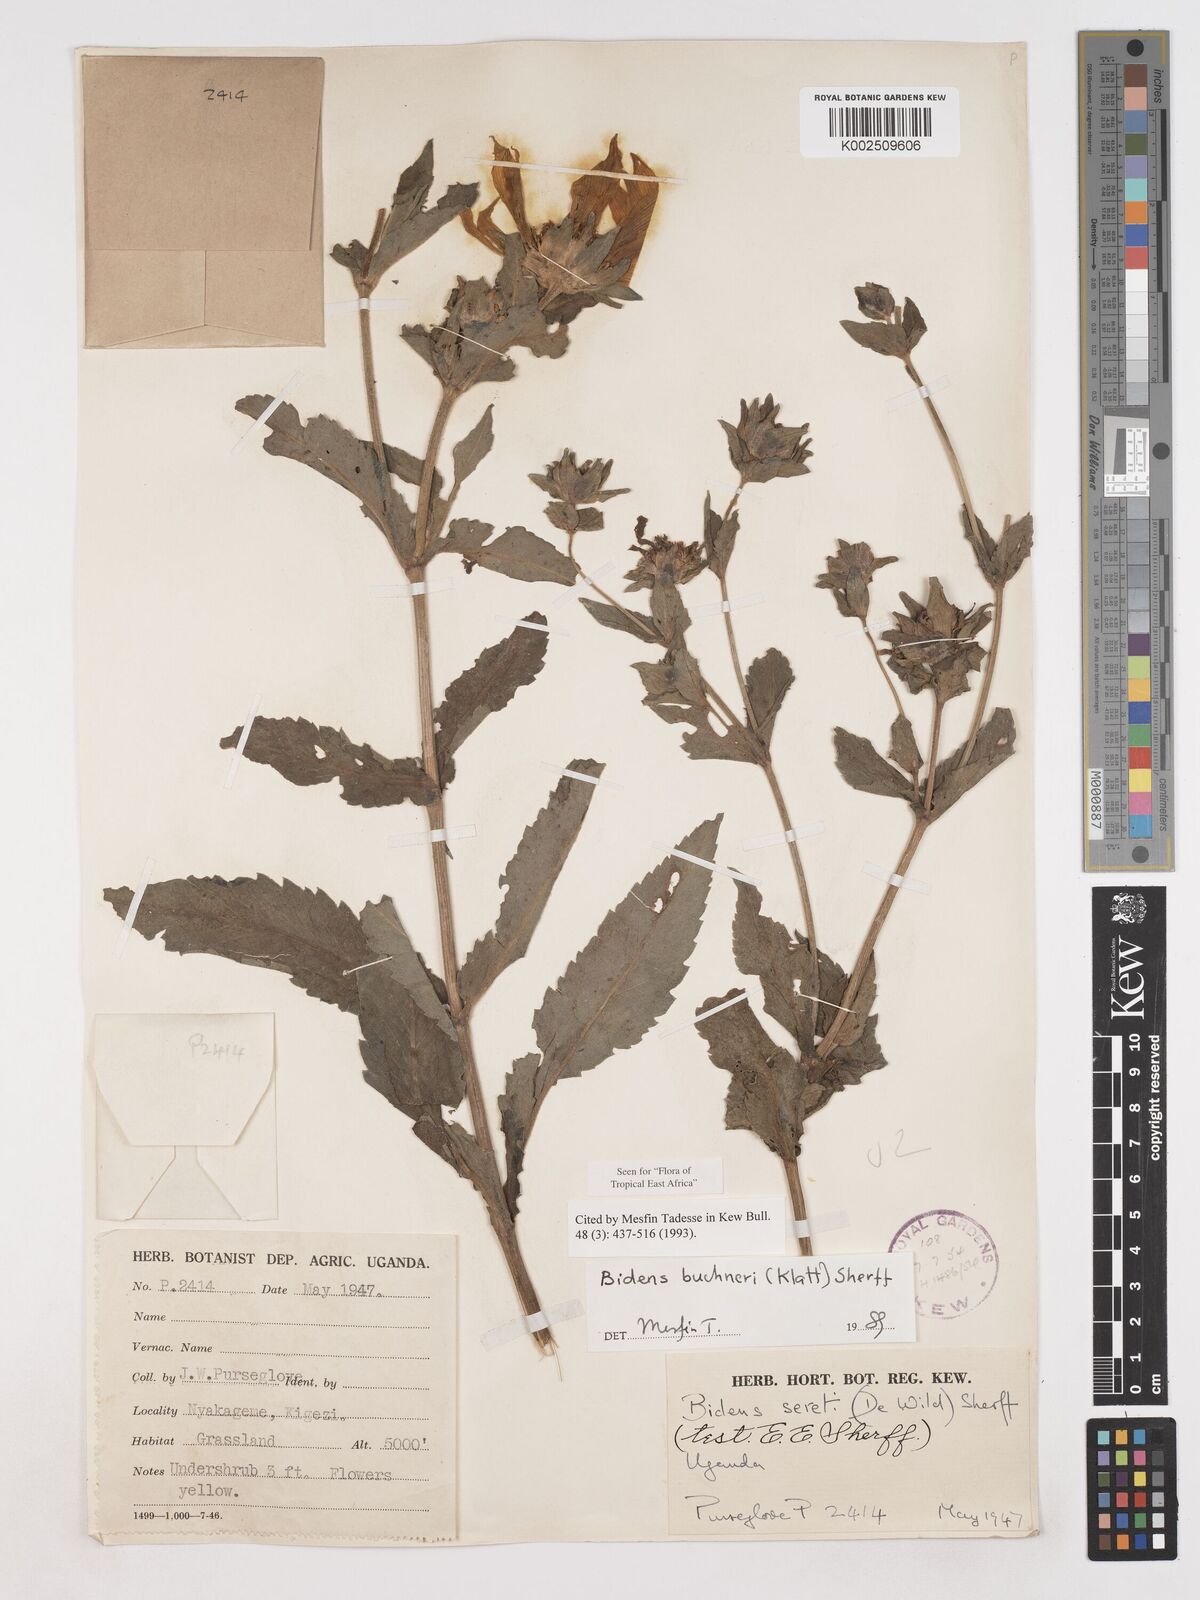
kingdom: Plantae
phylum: Tracheophyta
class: Magnoliopsida
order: Asterales
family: Asteraceae
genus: Bidens
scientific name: Bidens buchneri
